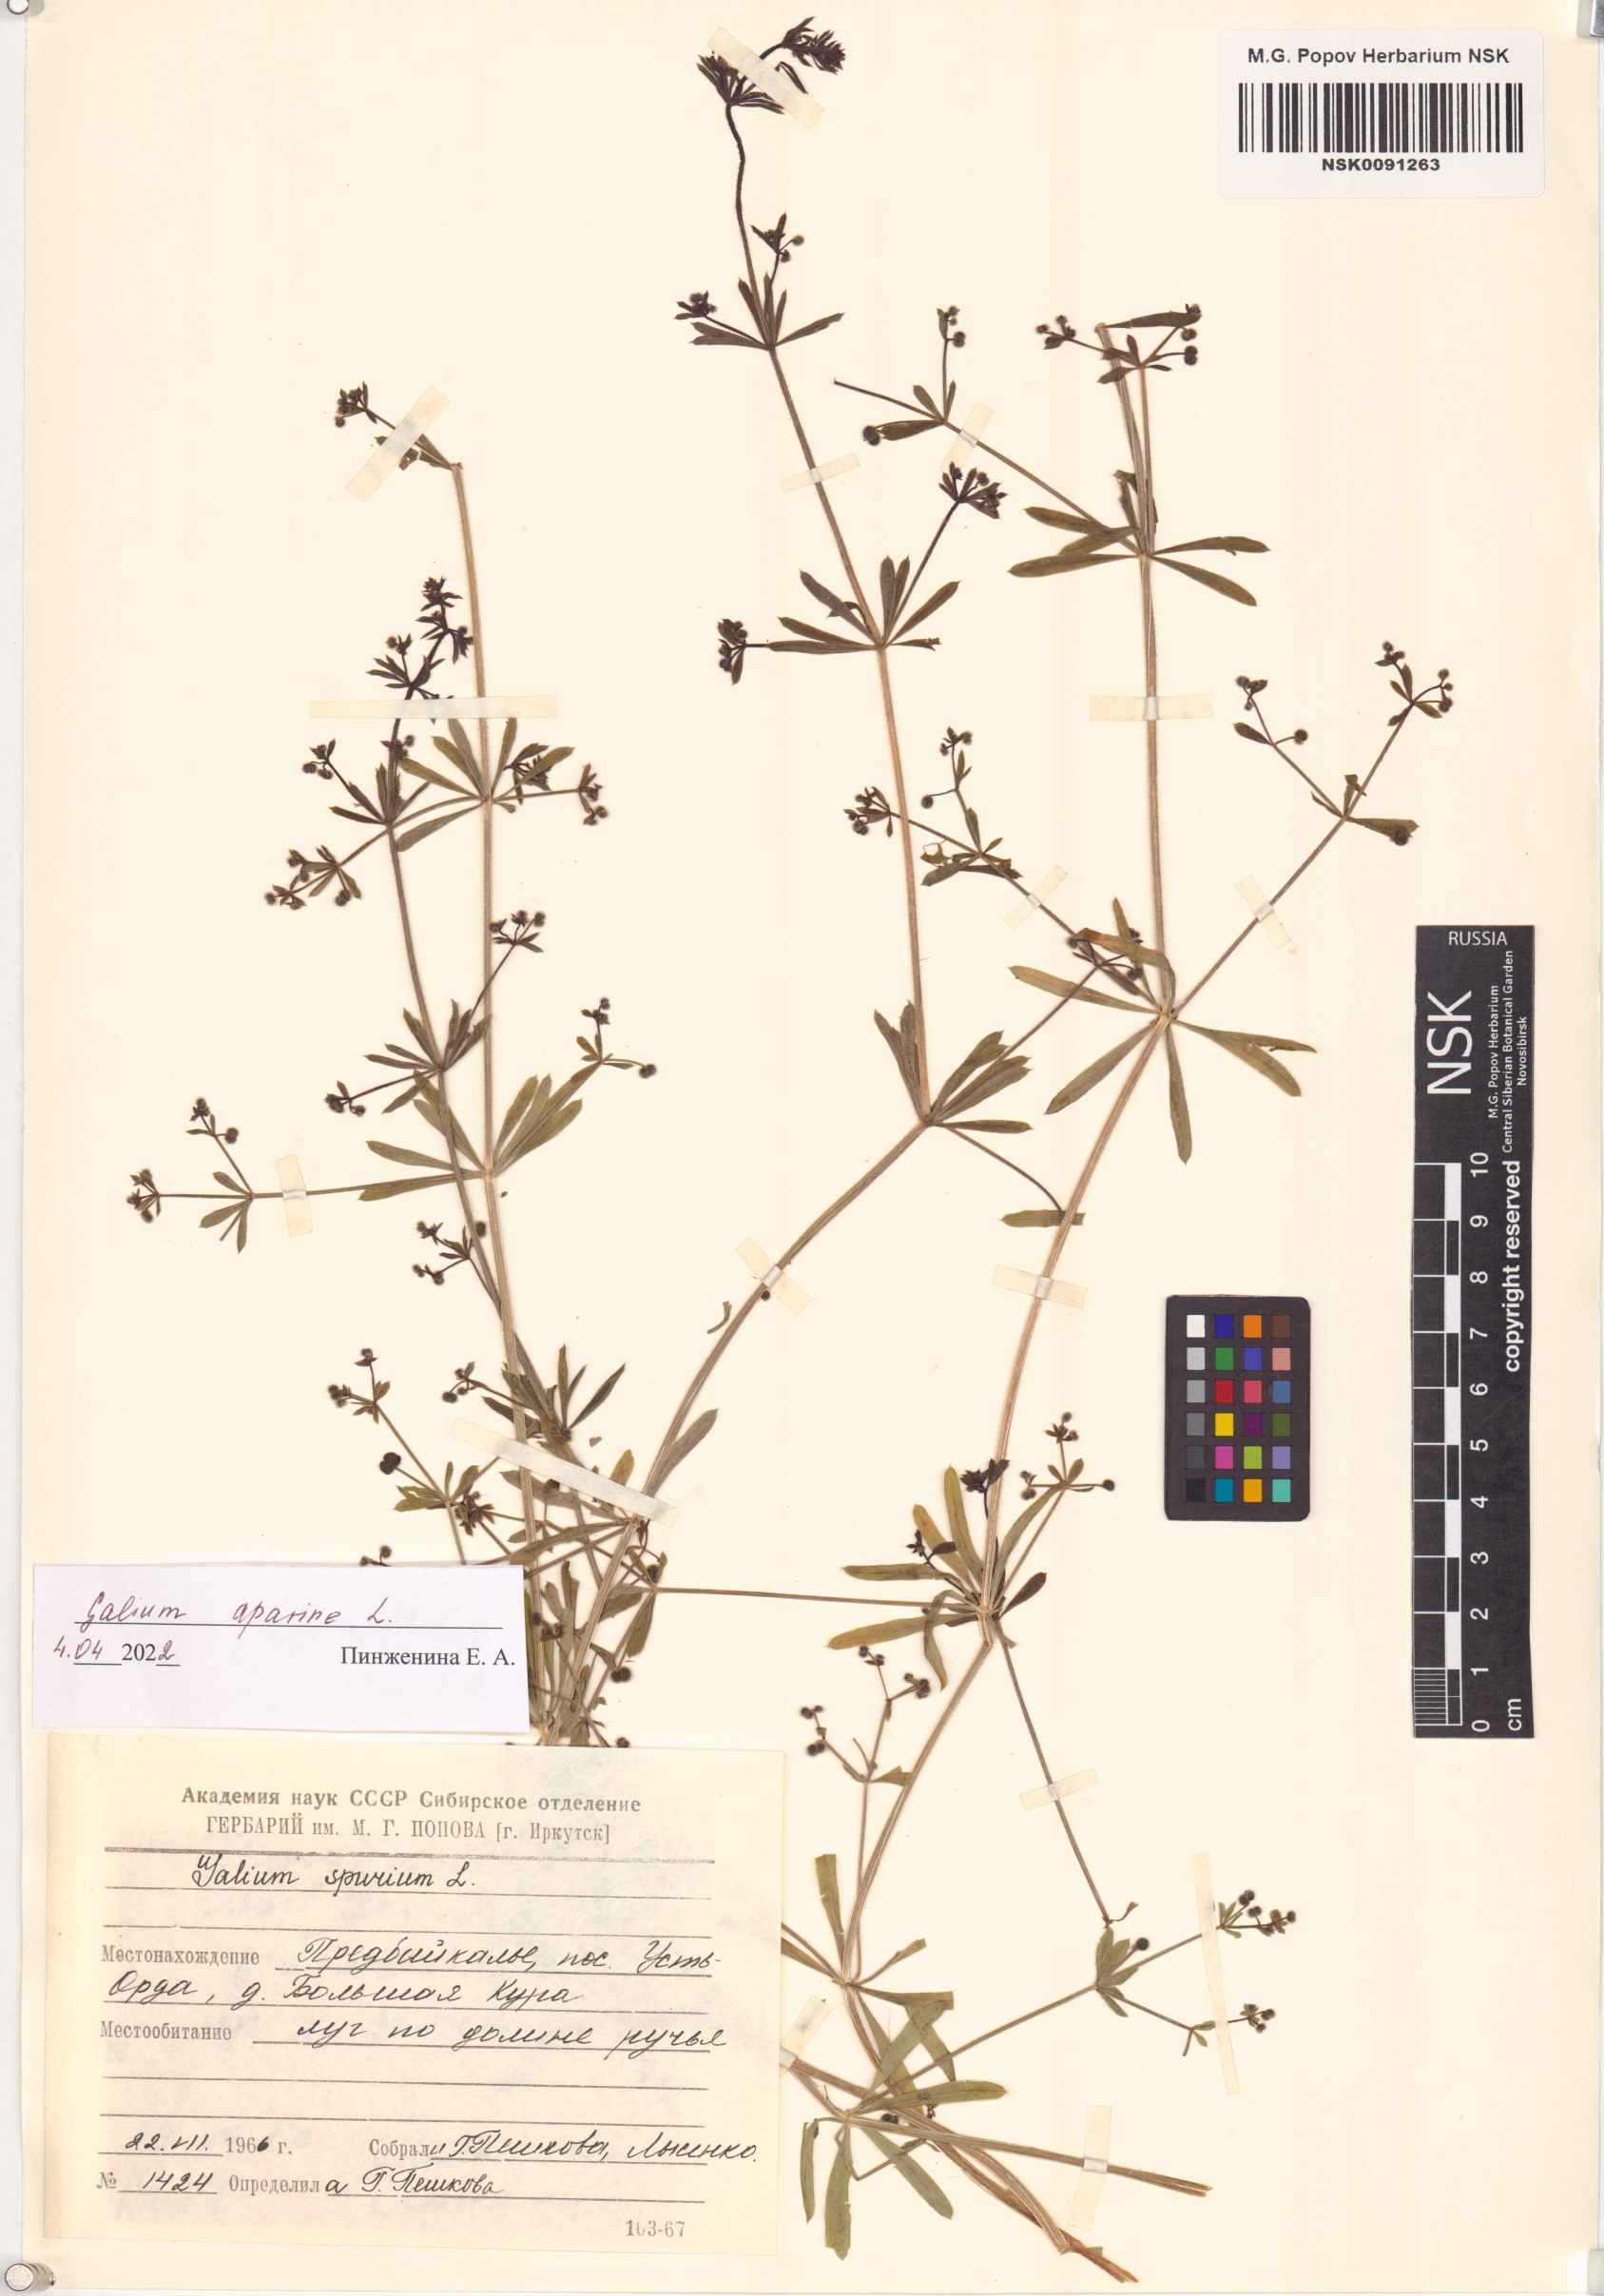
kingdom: Plantae
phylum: Tracheophyta
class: Magnoliopsida
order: Gentianales
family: Rubiaceae
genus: Galium
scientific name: Galium aparine
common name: Cleavers
